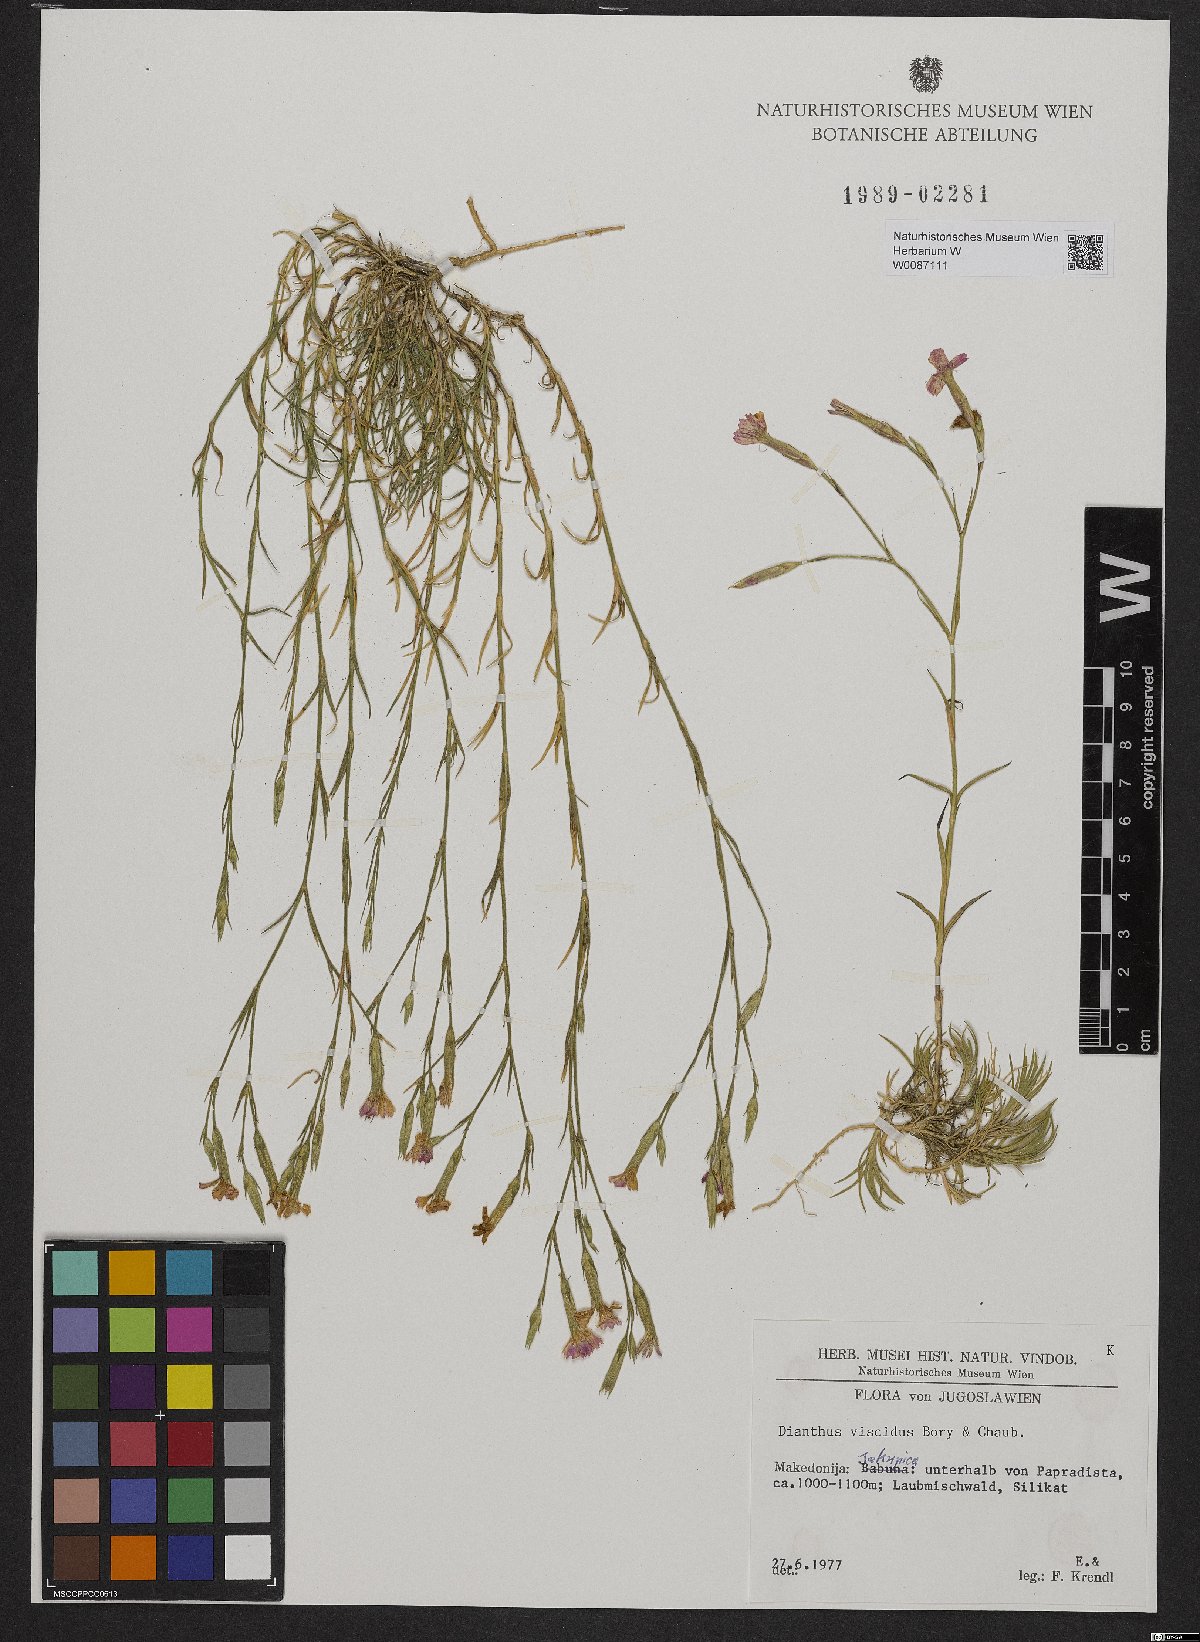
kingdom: Plantae
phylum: Tracheophyta
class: Magnoliopsida
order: Caryophyllales
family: Caryophyllaceae
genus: Dianthus
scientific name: Dianthus viscidus
